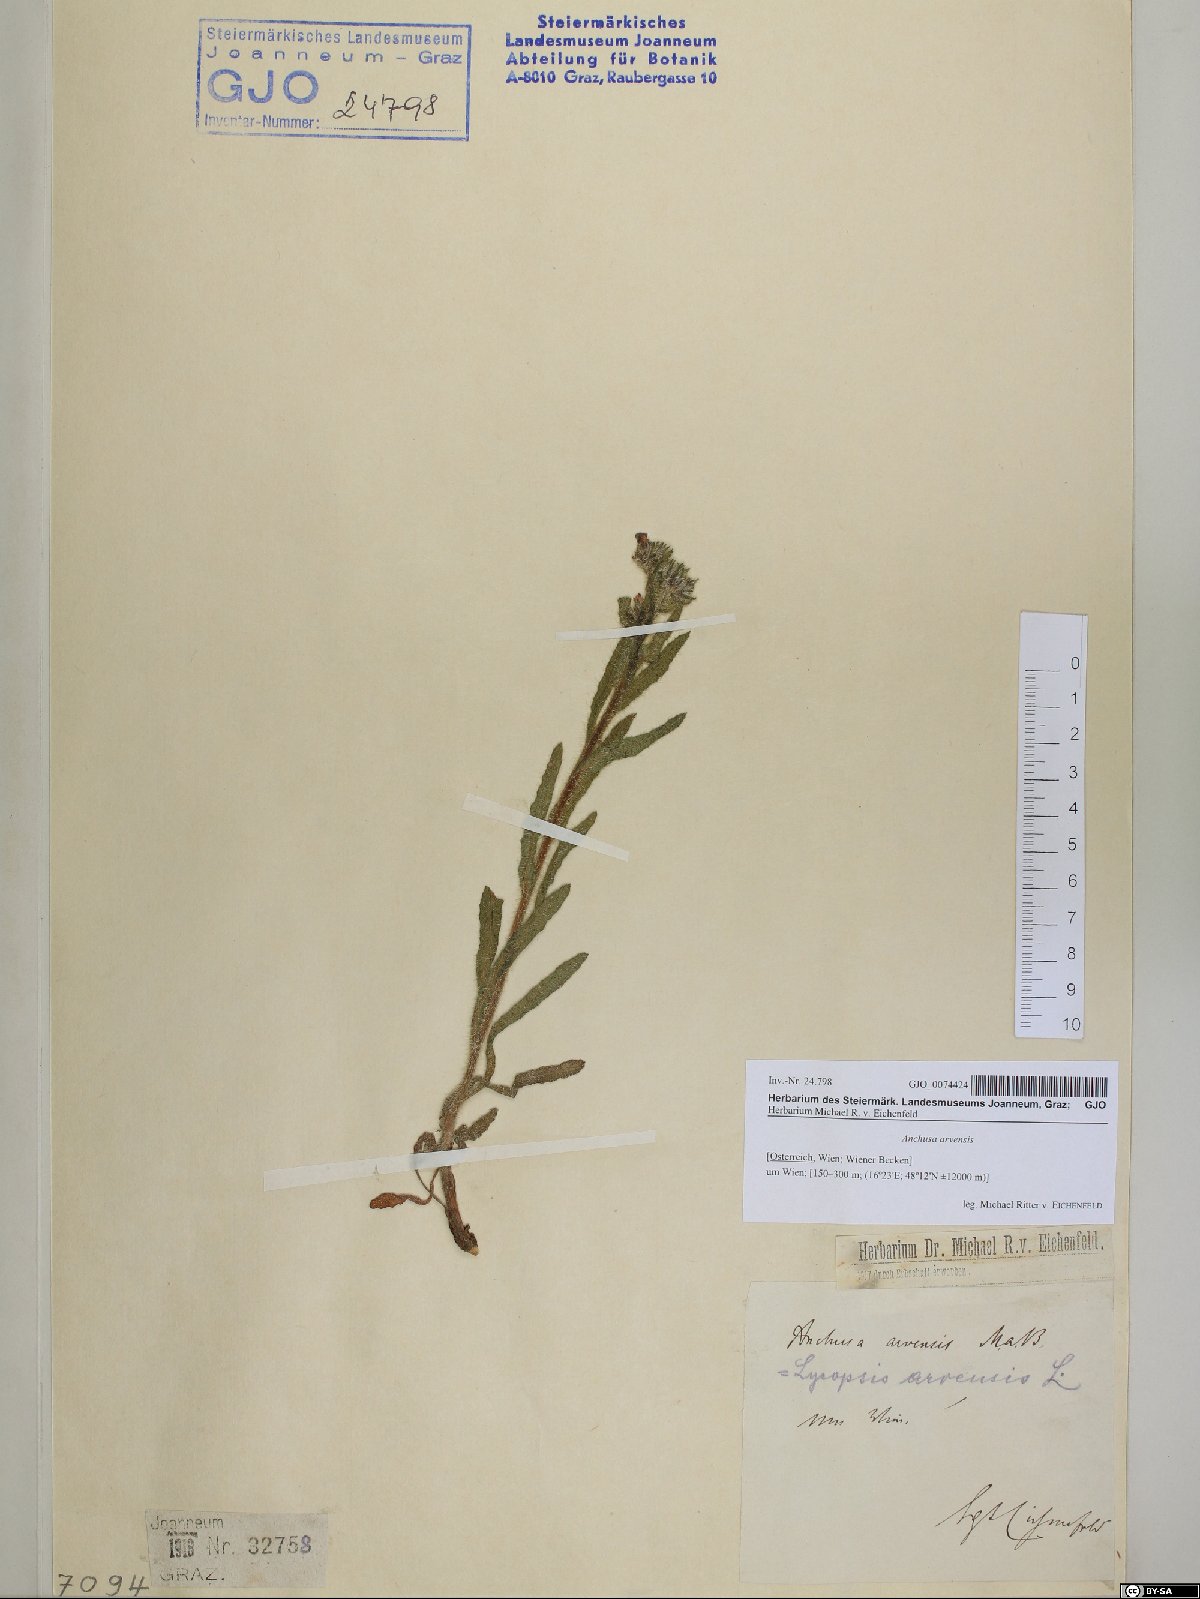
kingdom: Plantae
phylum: Tracheophyta
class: Magnoliopsida
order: Boraginales
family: Boraginaceae
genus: Lycopsis
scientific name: Lycopsis arvensis
